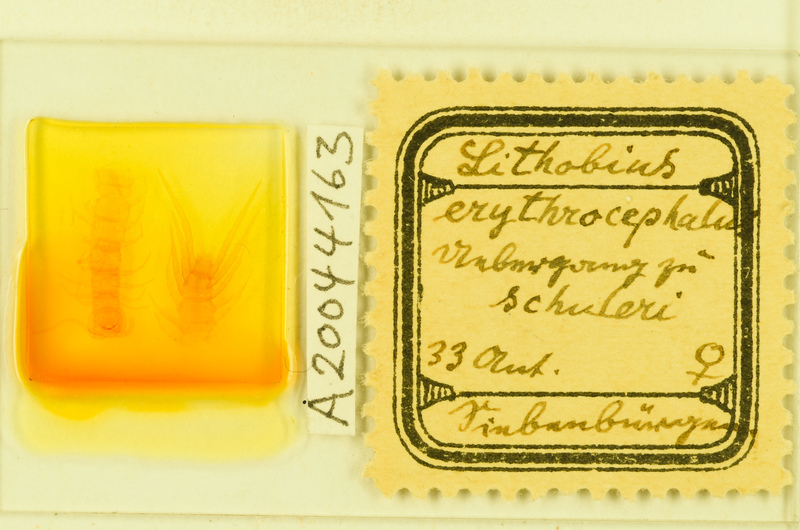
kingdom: Animalia
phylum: Arthropoda
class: Chilopoda
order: Lithobiomorpha
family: Lithobiidae
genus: Lithobius
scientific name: Lithobius erythrocephalus
